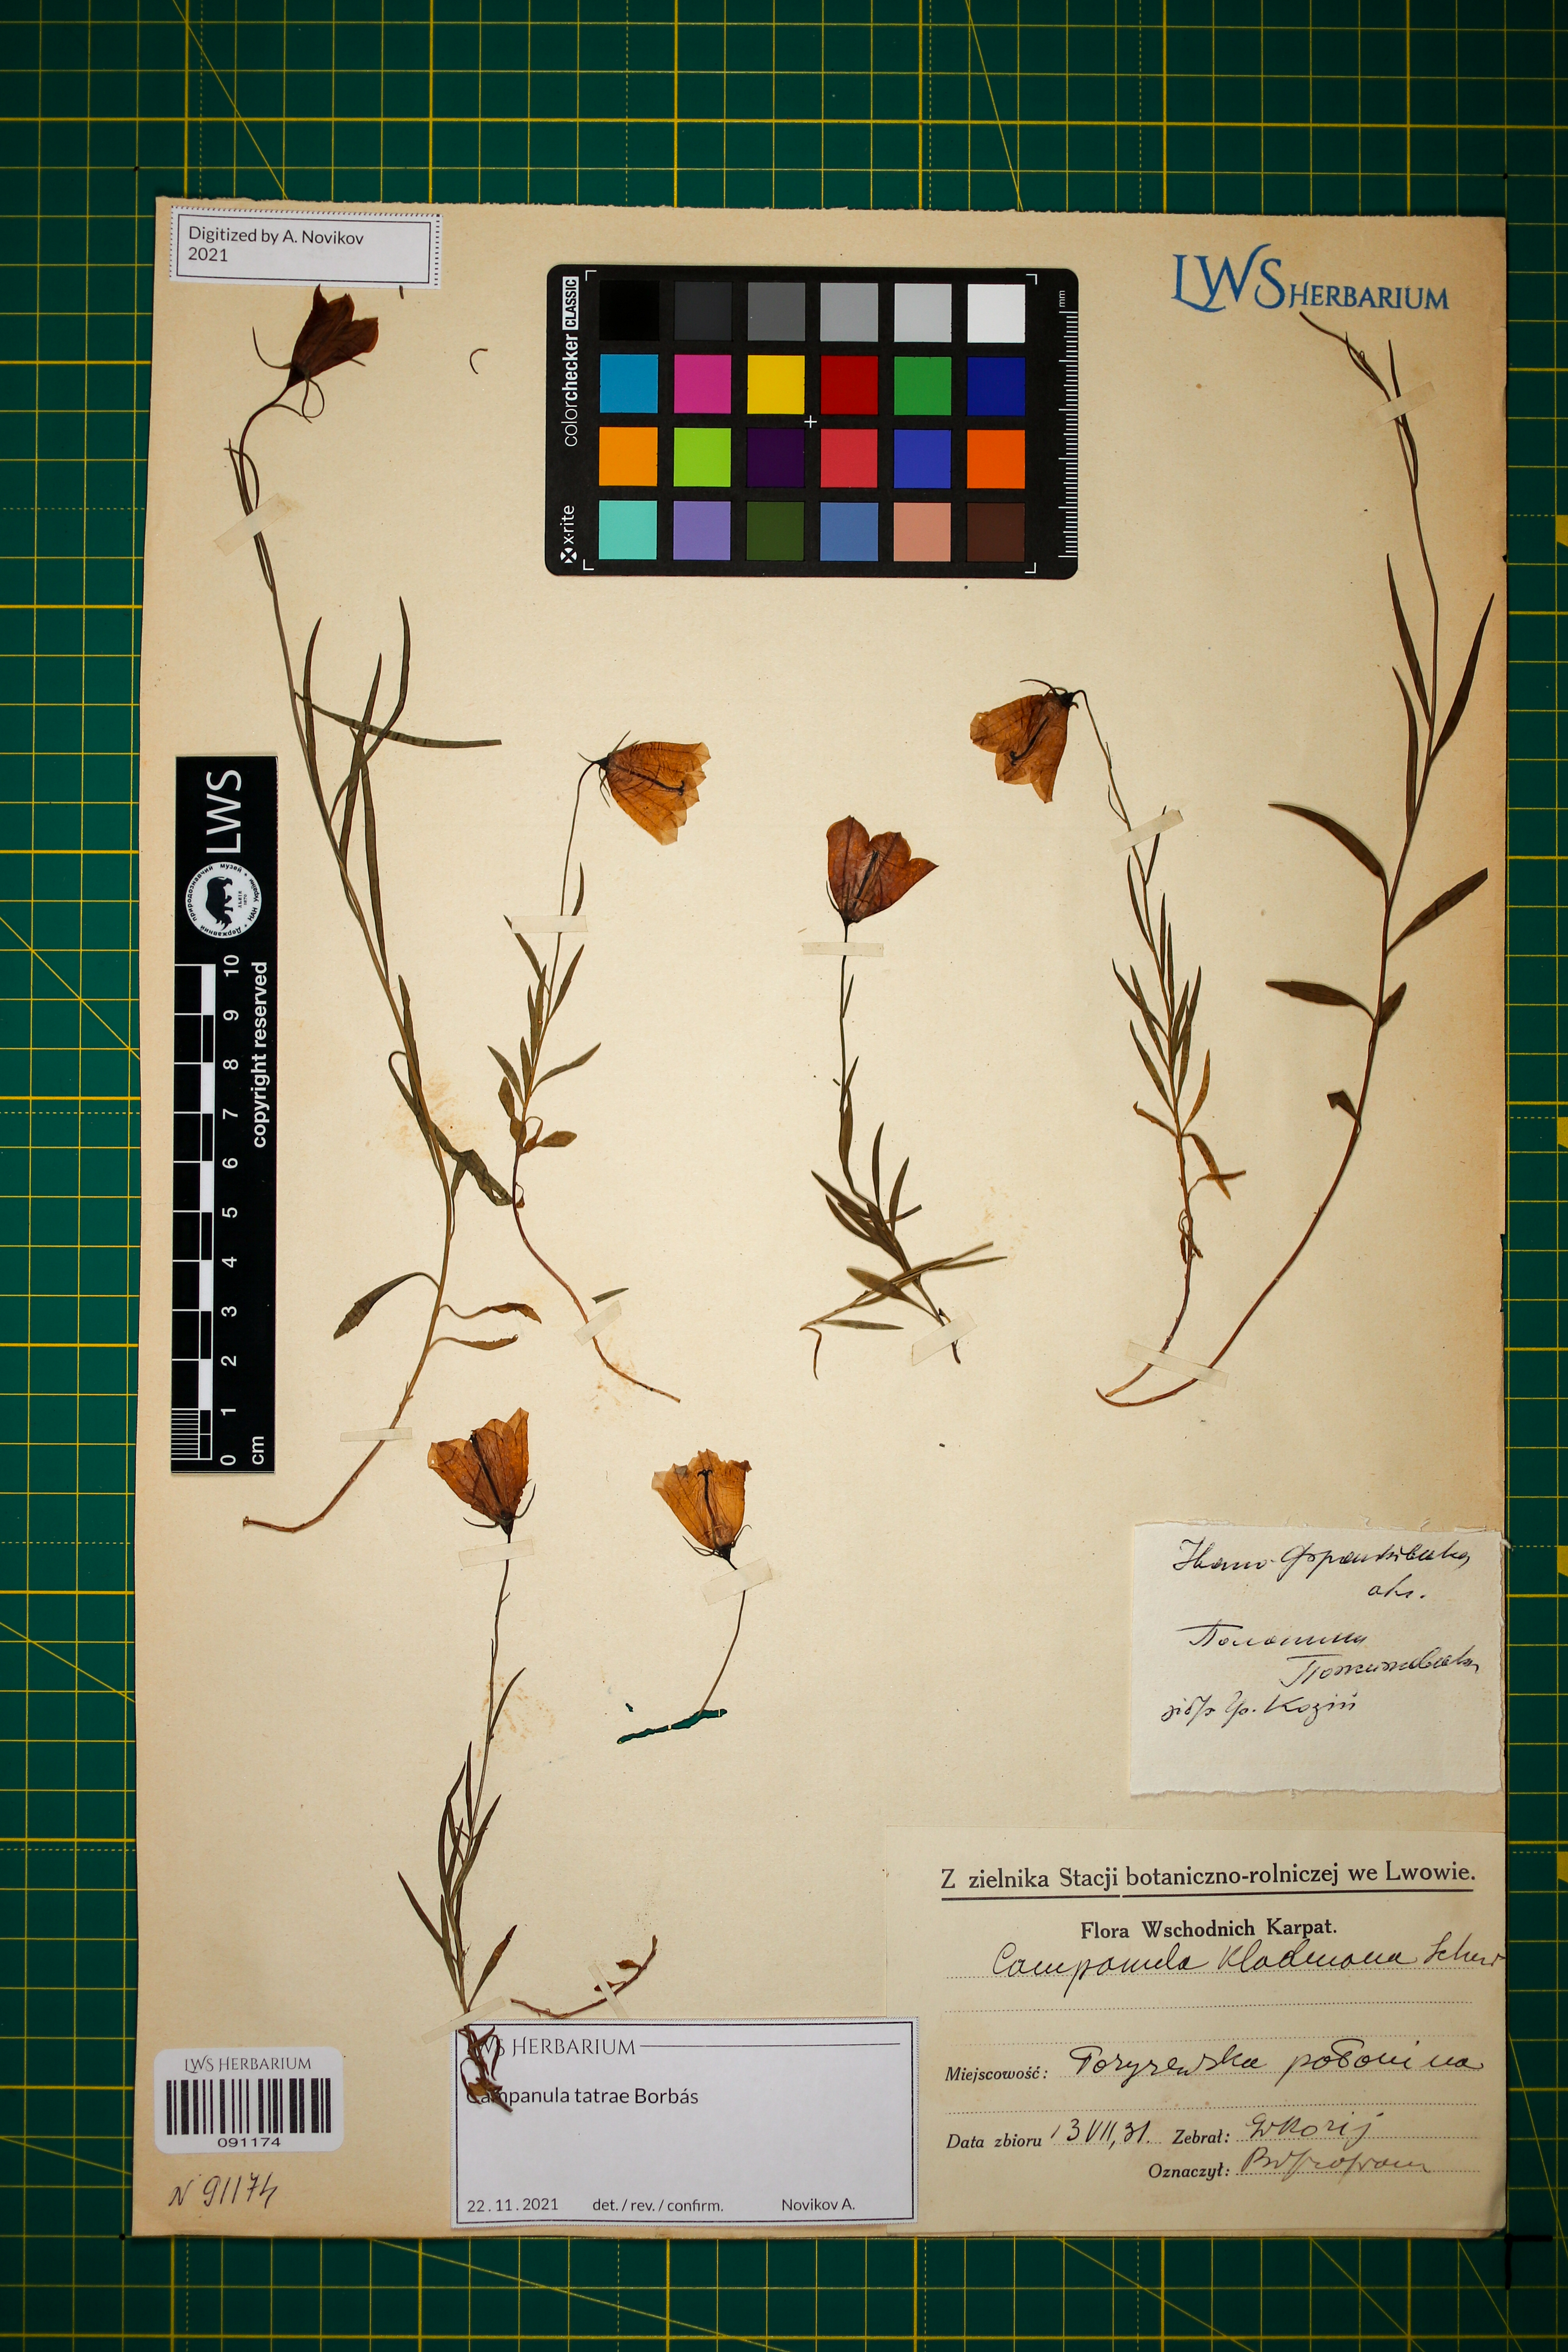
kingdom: Plantae
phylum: Tracheophyta
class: Magnoliopsida
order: Asterales
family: Campanulaceae
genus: Campanula
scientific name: Campanula kladniana
